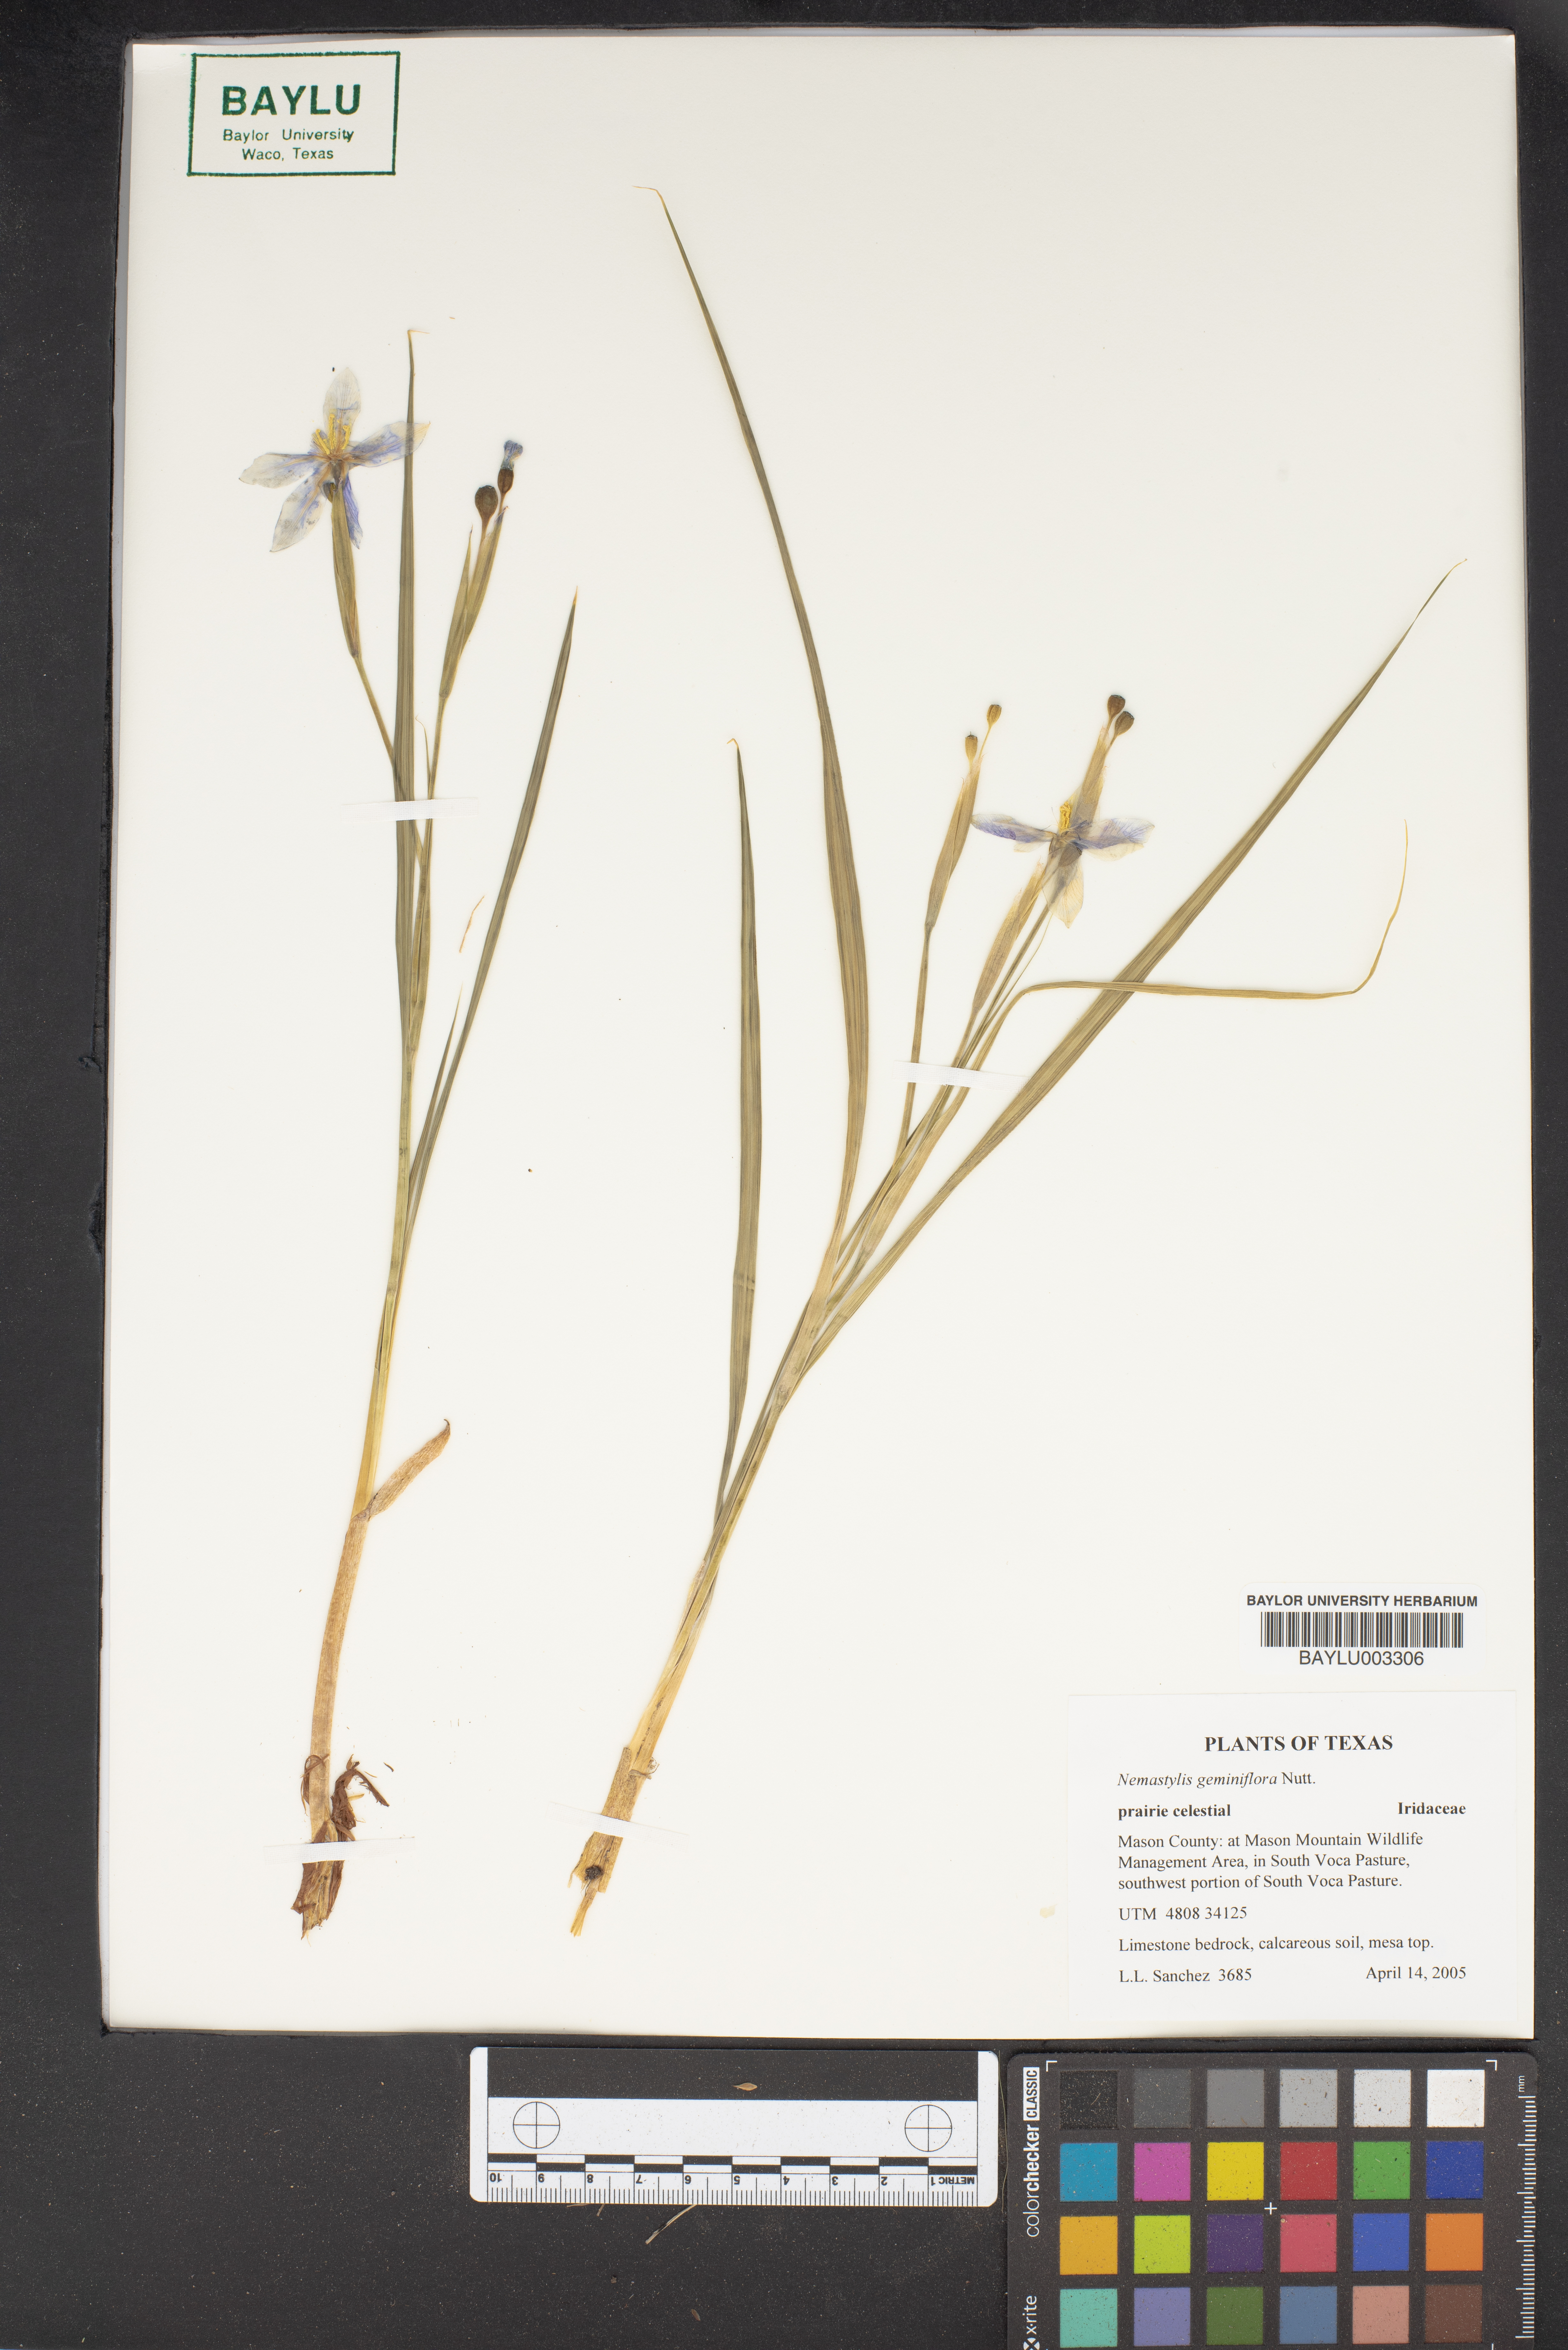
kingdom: Plantae
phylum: Tracheophyta
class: Liliopsida
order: Asparagales
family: Iridaceae
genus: Nemastylis
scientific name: Nemastylis geminiflora
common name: Prairie celestial
